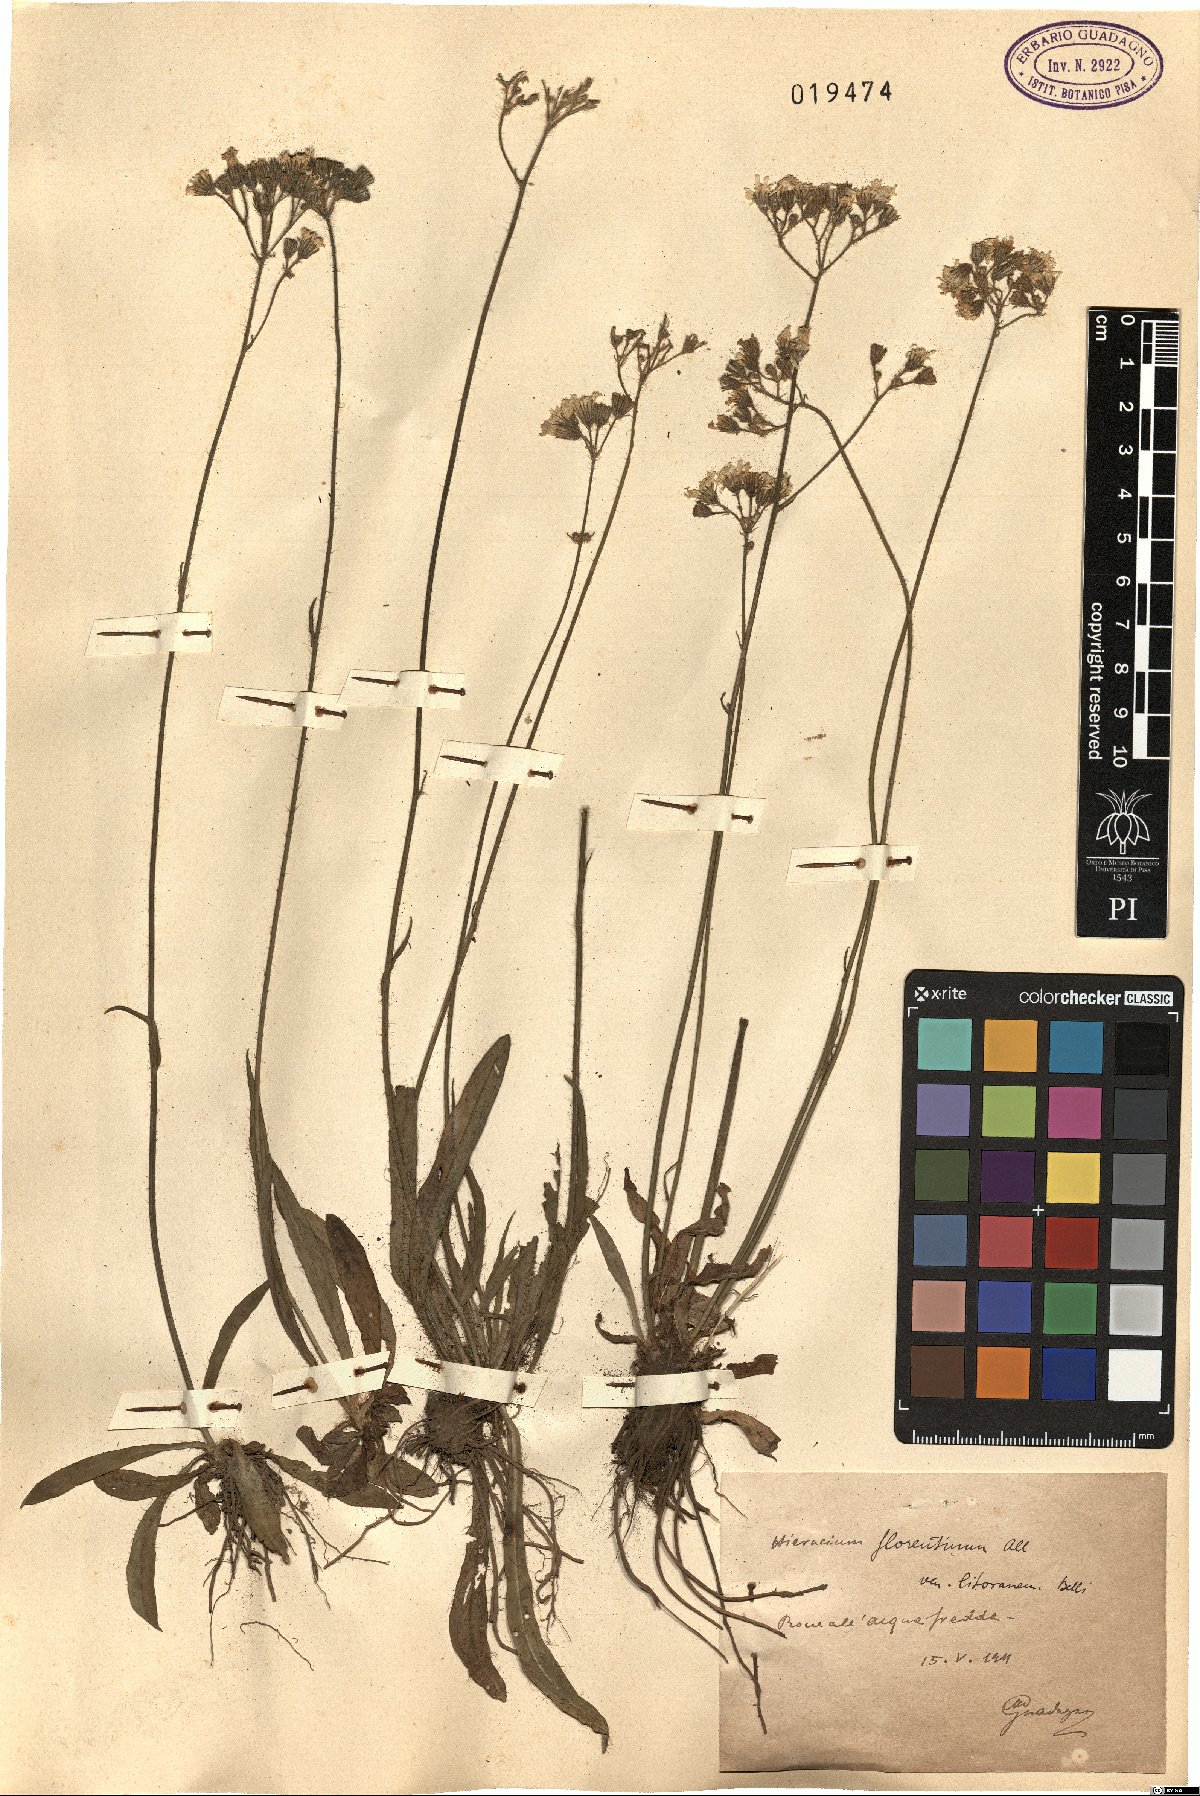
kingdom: Plantae
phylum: Tracheophyta
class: Magnoliopsida
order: Asterales
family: Asteraceae
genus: Hieracium
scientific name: Hieracium florentinum
